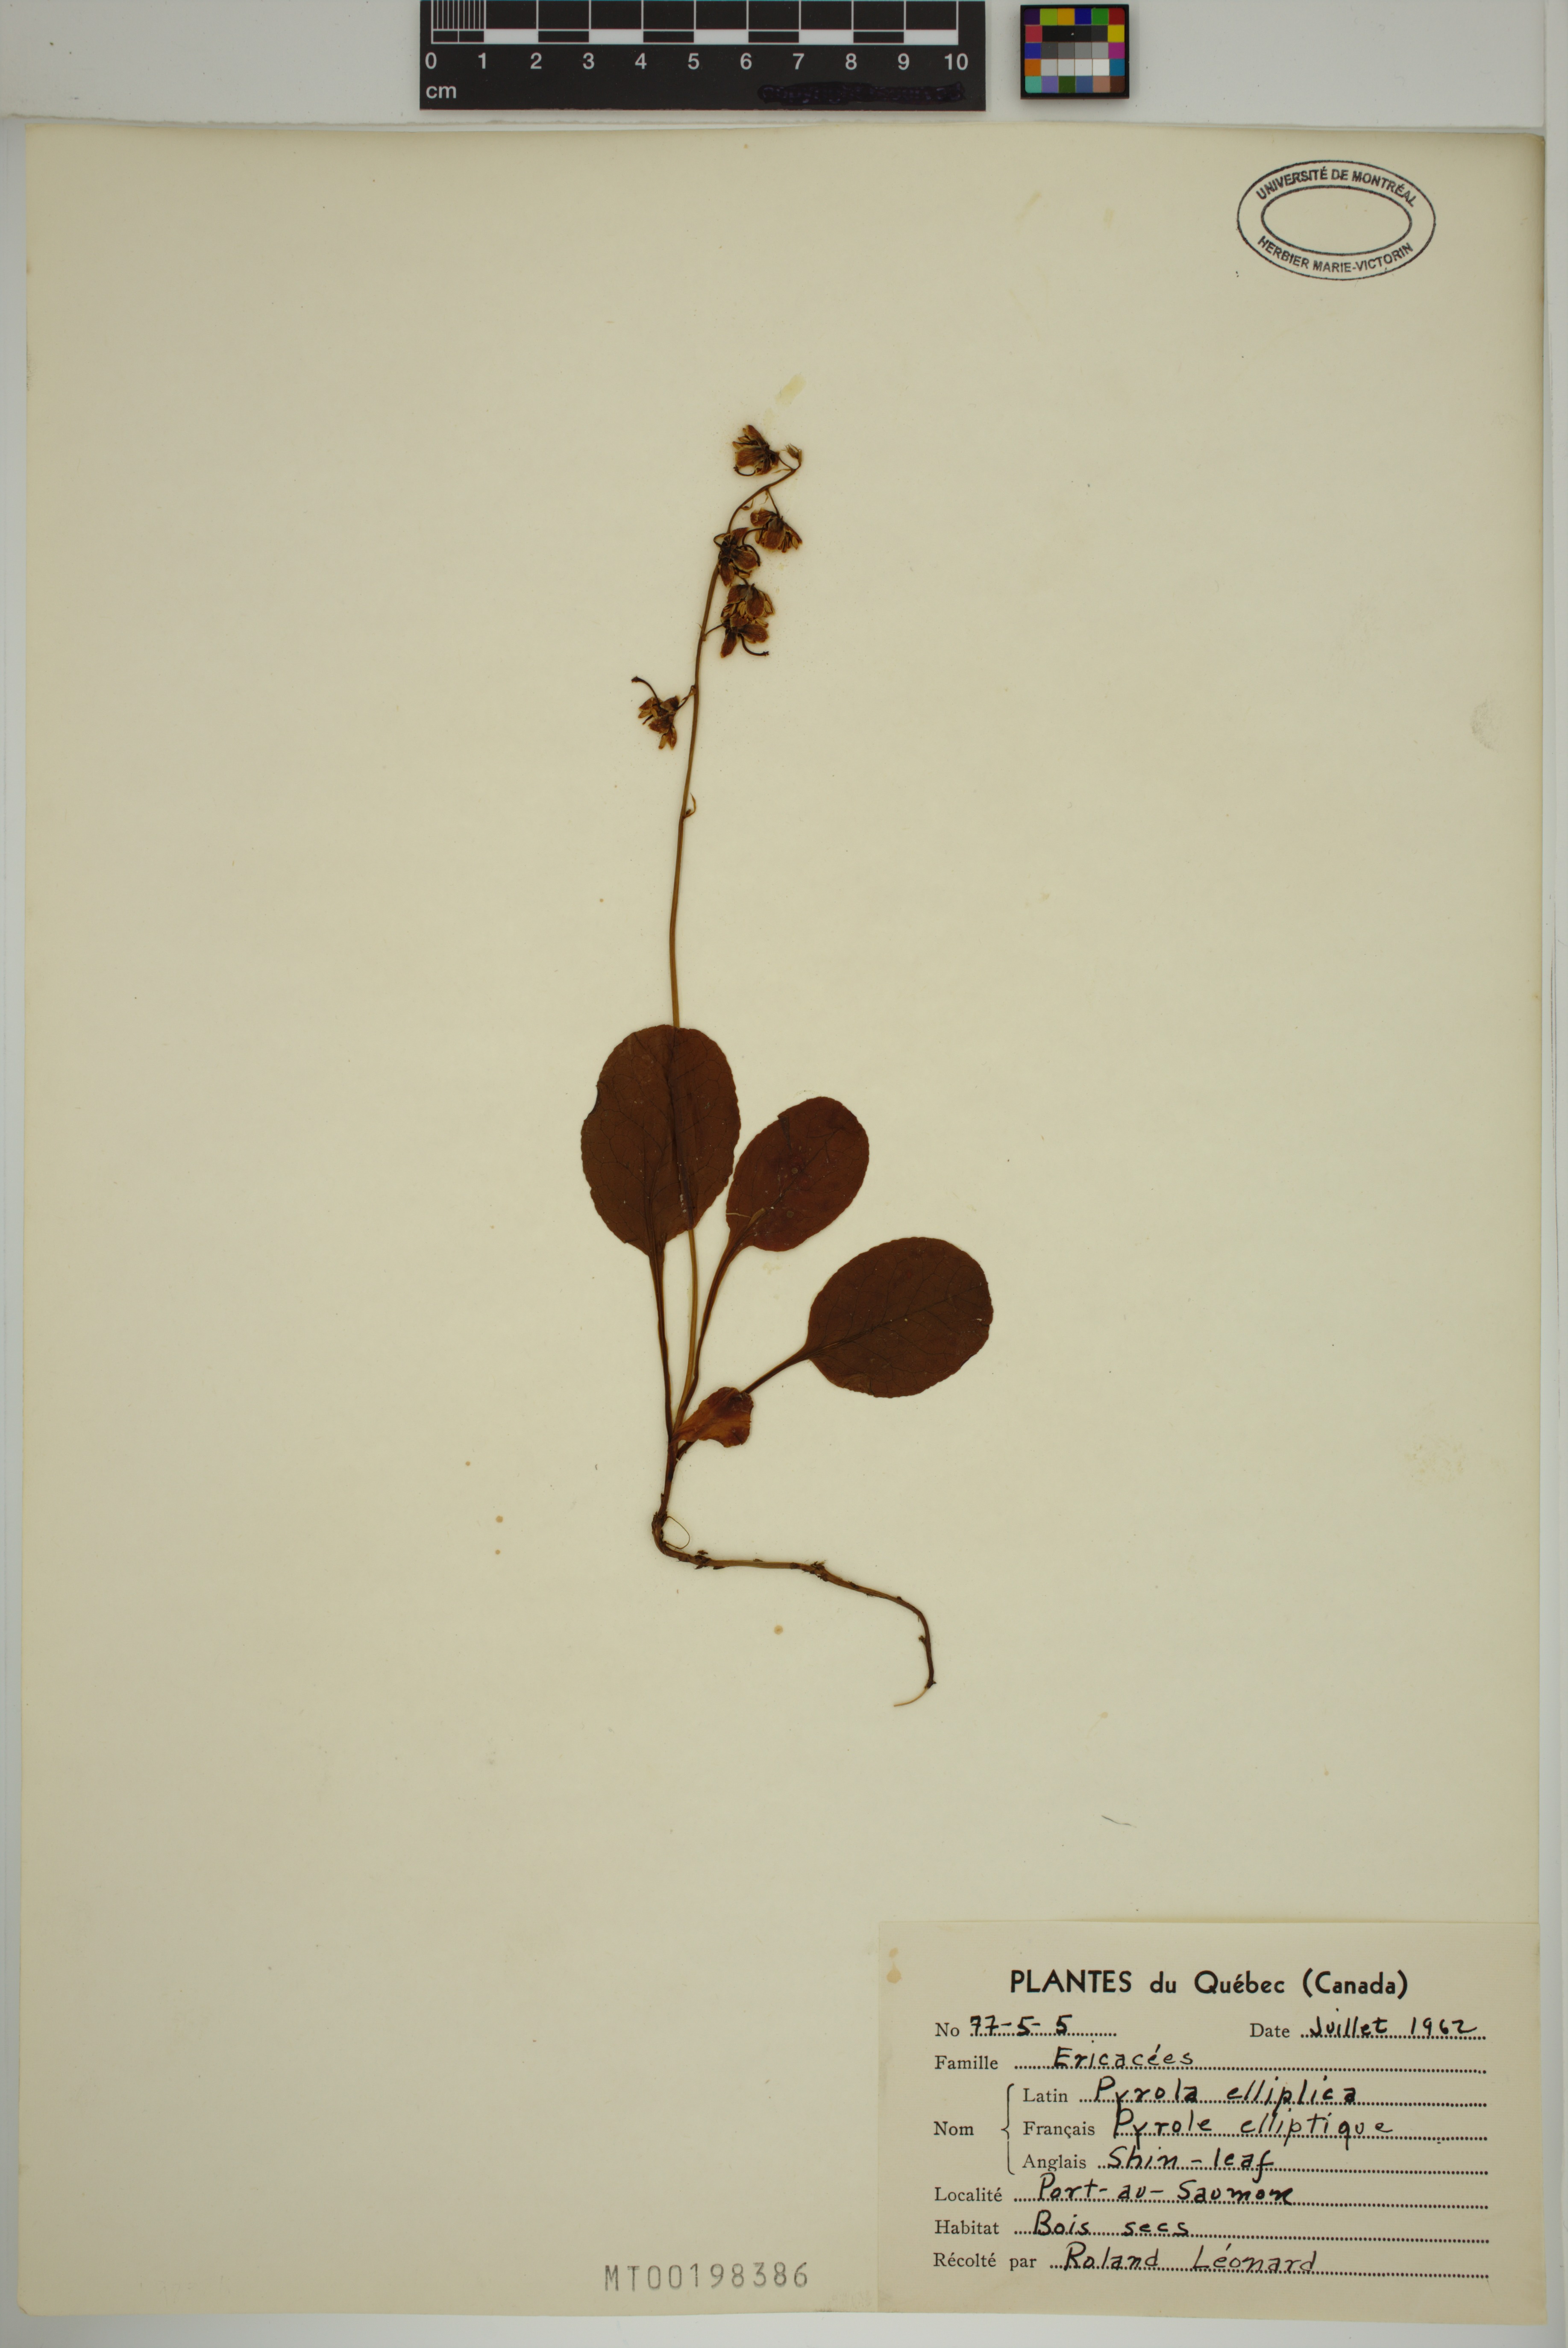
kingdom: Plantae
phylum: Tracheophyta
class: Magnoliopsida
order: Ericales
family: Ericaceae
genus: Pyrola
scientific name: Pyrola elliptica
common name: Shinleaf
